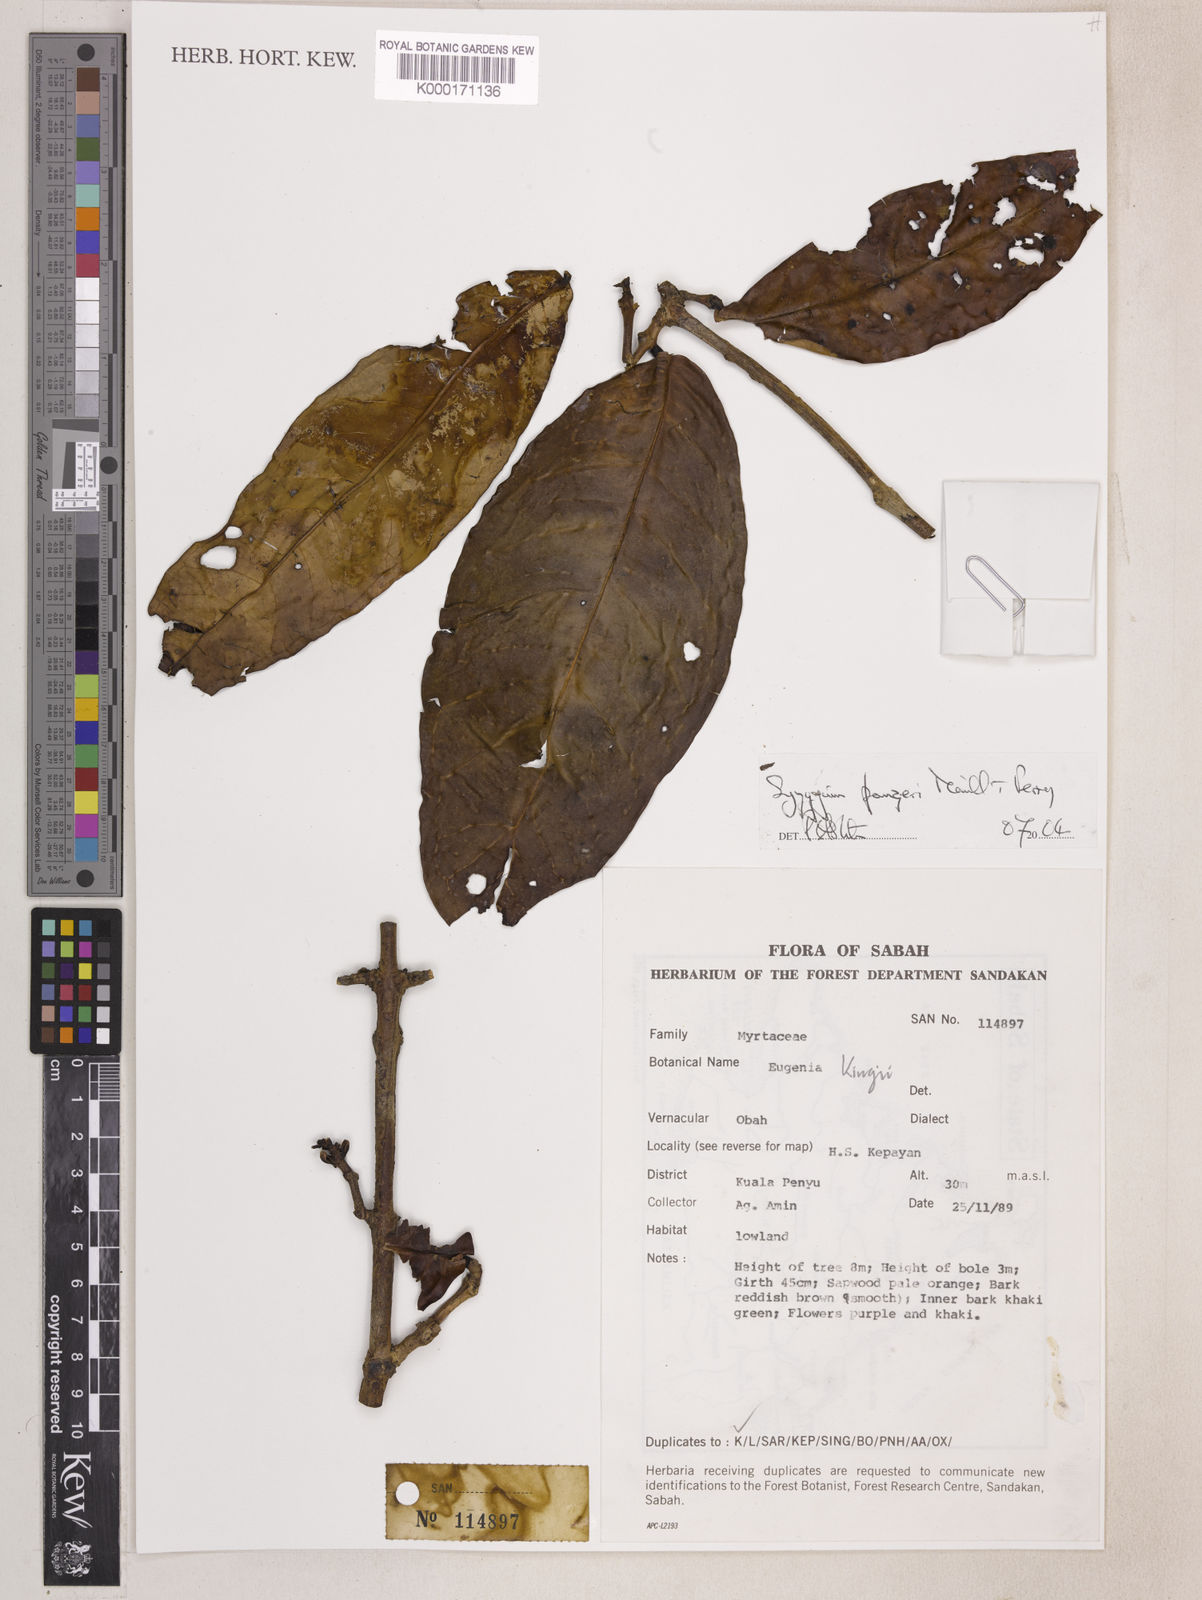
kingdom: Plantae
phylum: Tracheophyta
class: Magnoliopsida
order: Myrtales
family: Myrtaceae
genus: Syzygium
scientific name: Syzygium
